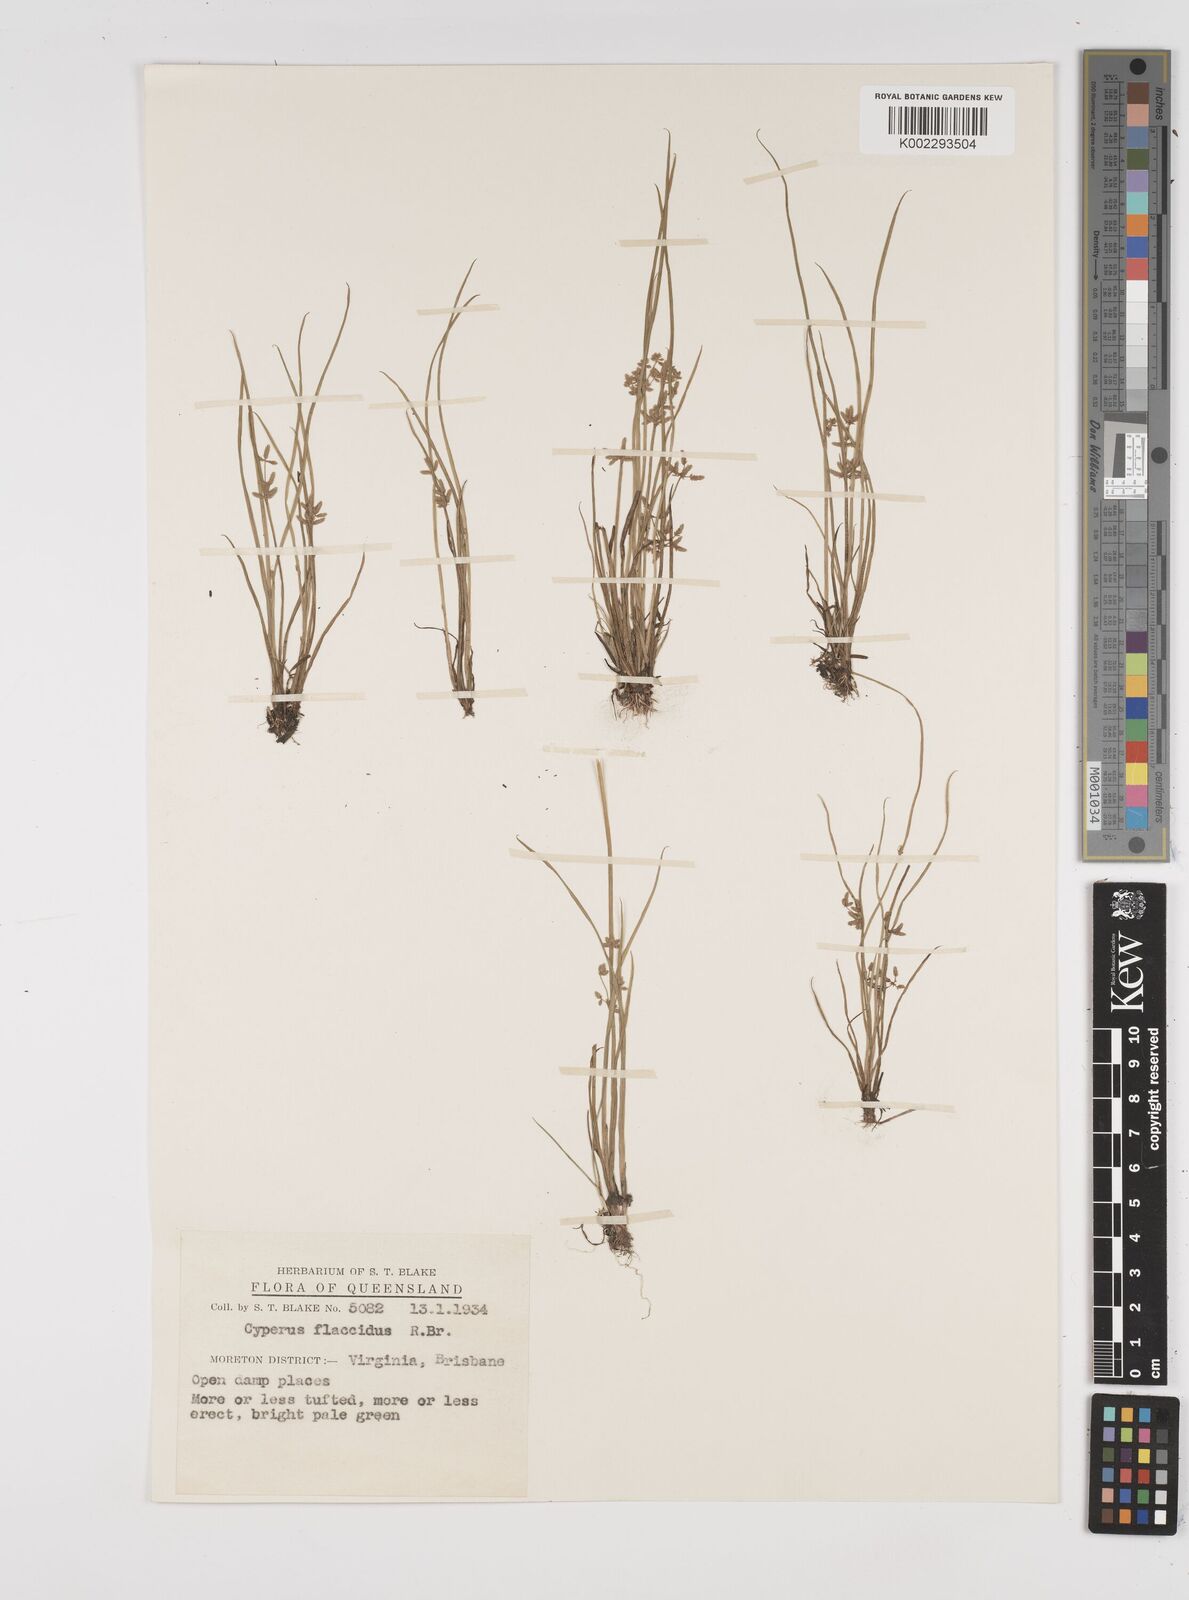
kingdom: Plantae
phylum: Tracheophyta
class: Liliopsida
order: Poales
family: Cyperaceae
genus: Cyperus
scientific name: Cyperus flaccidus
